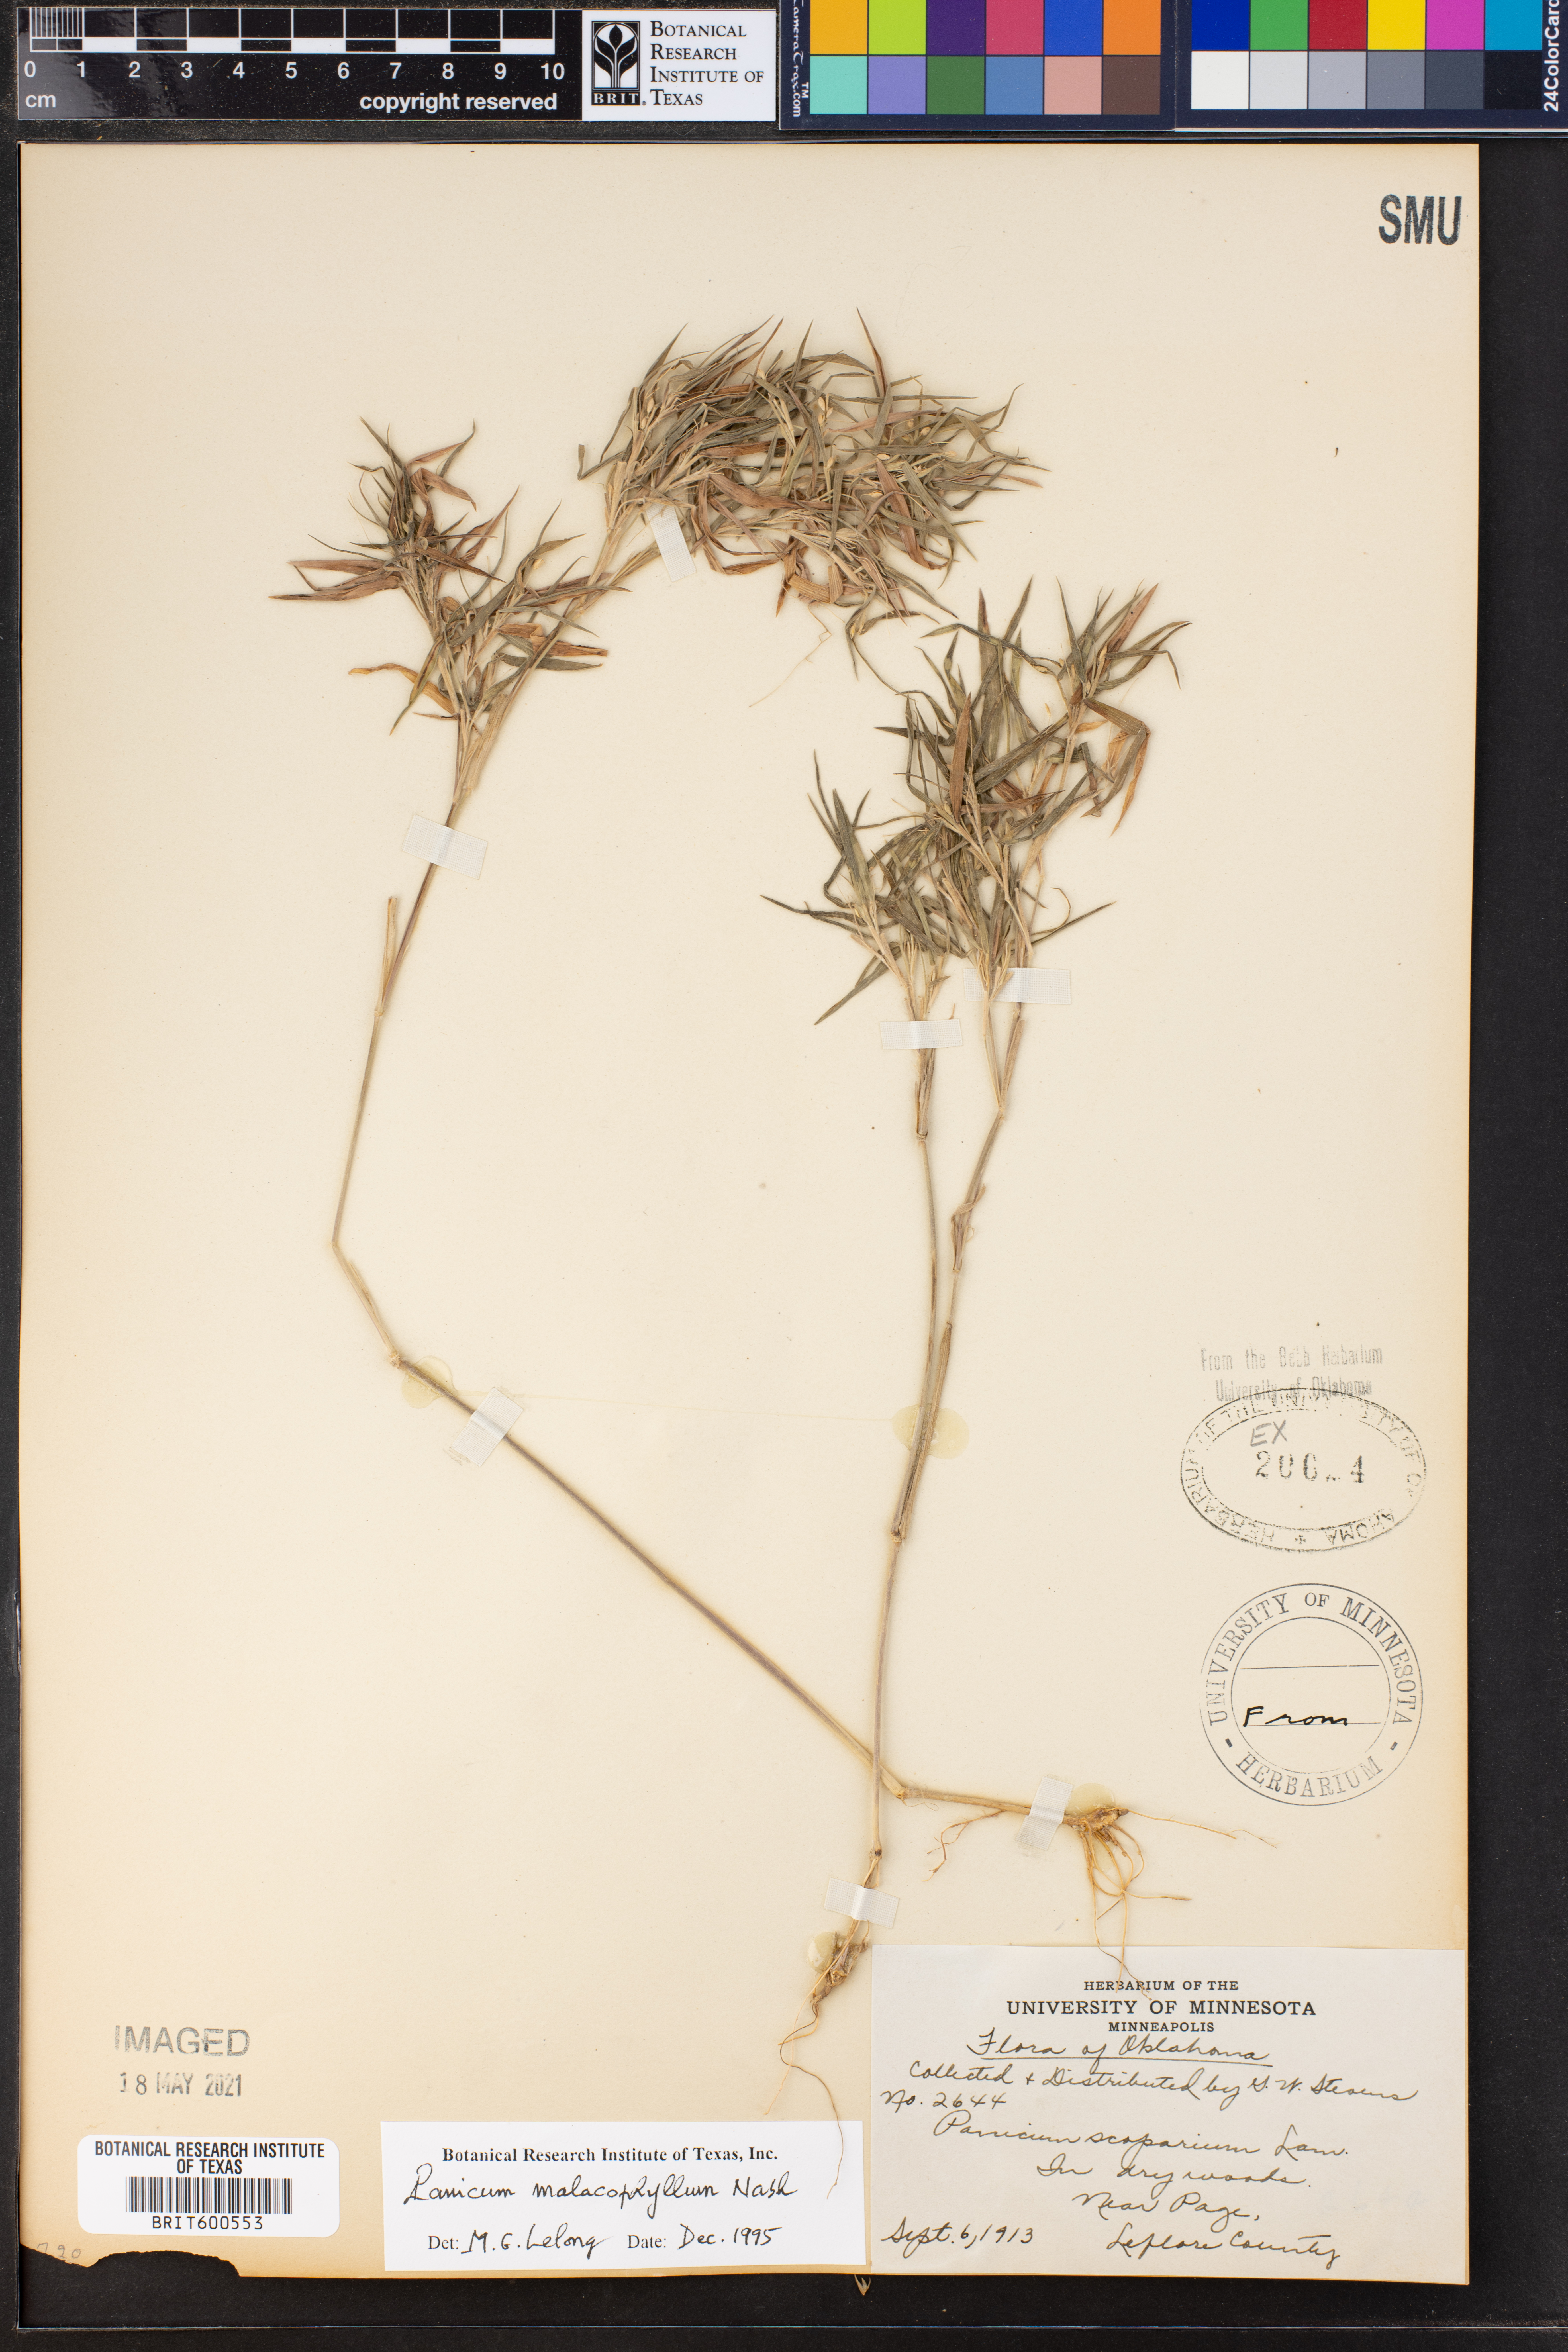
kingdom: Plantae
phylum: Tracheophyta
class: Liliopsida
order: Poales
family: Poaceae
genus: Dichanthelium
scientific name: Dichanthelium malacophyllum
